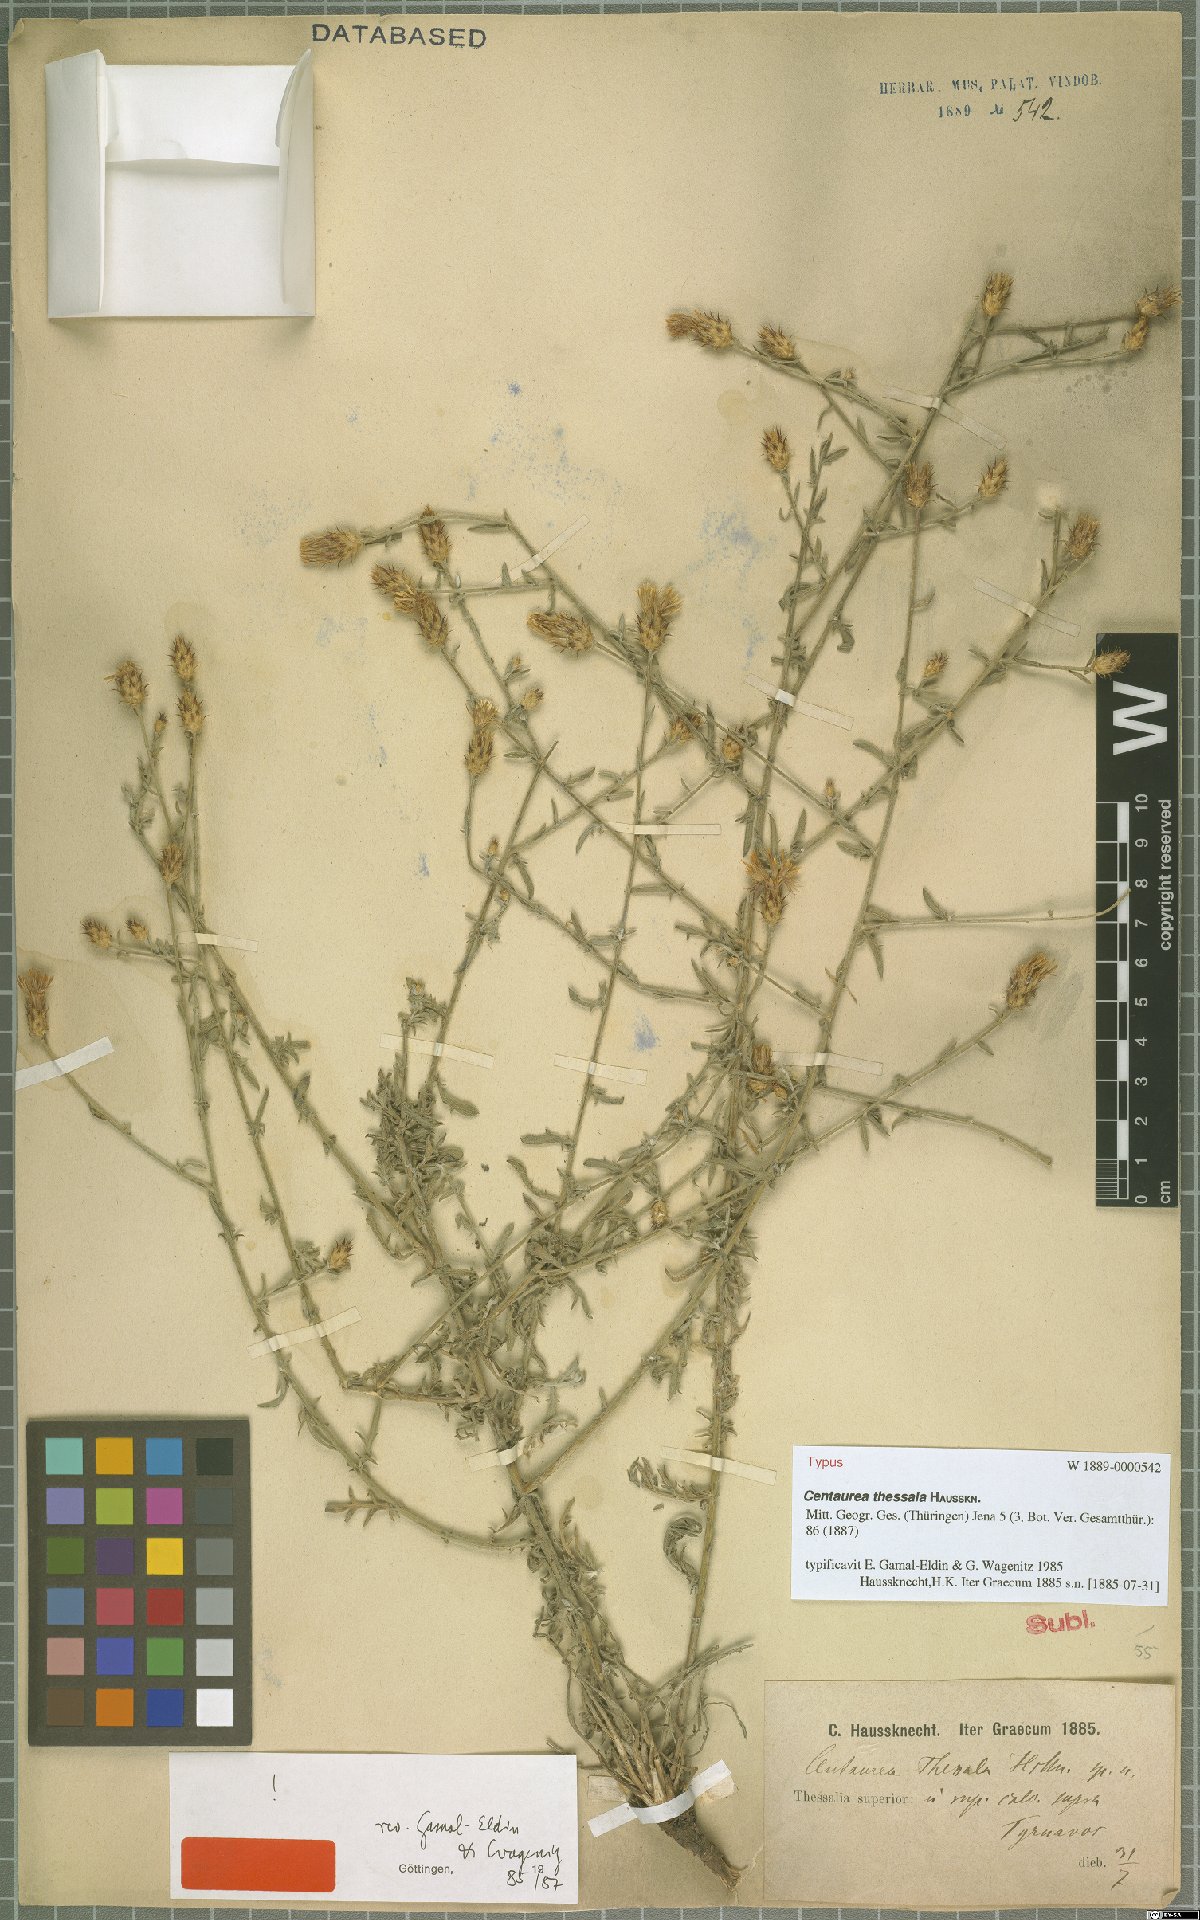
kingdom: Plantae
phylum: Tracheophyta
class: Magnoliopsida
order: Asterales
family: Asteraceae
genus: Centaurea
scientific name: Centaurea thessala
